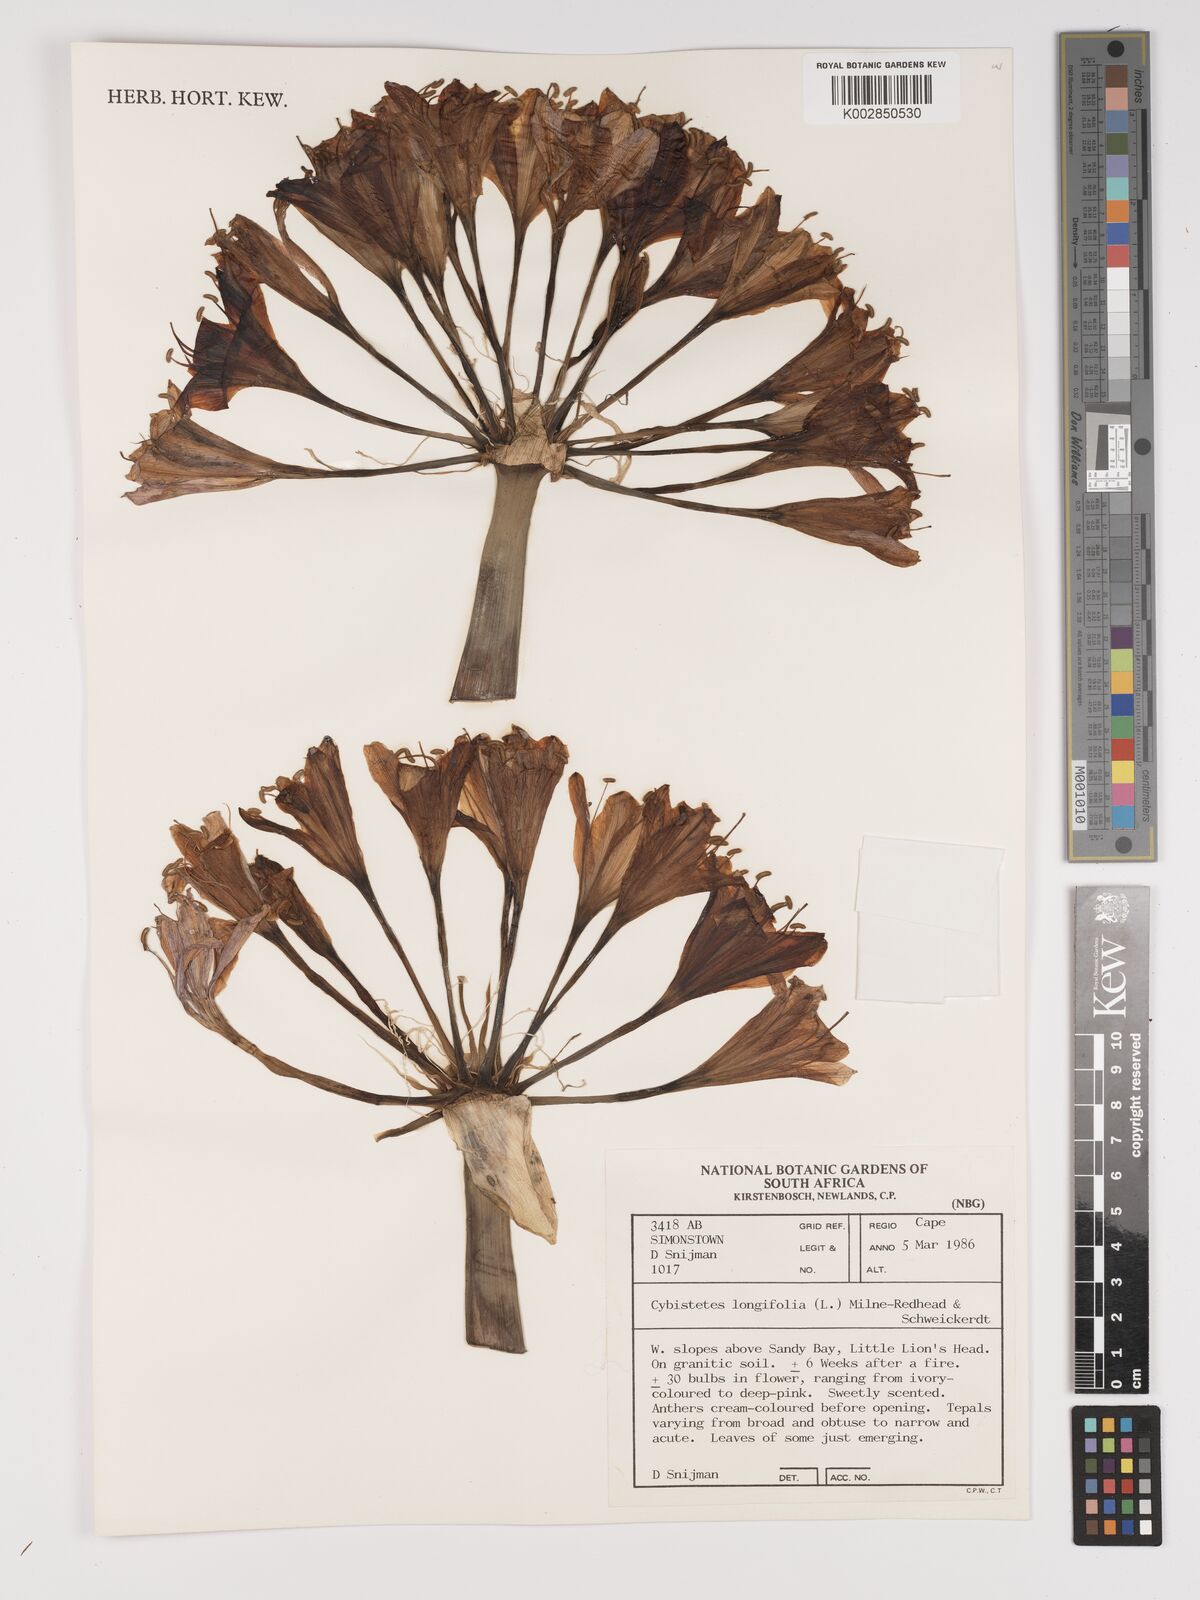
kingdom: Plantae
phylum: Tracheophyta
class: Liliopsida
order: Asparagales
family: Amaryllidaceae
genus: Ammocharis
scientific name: Ammocharis longifolia
